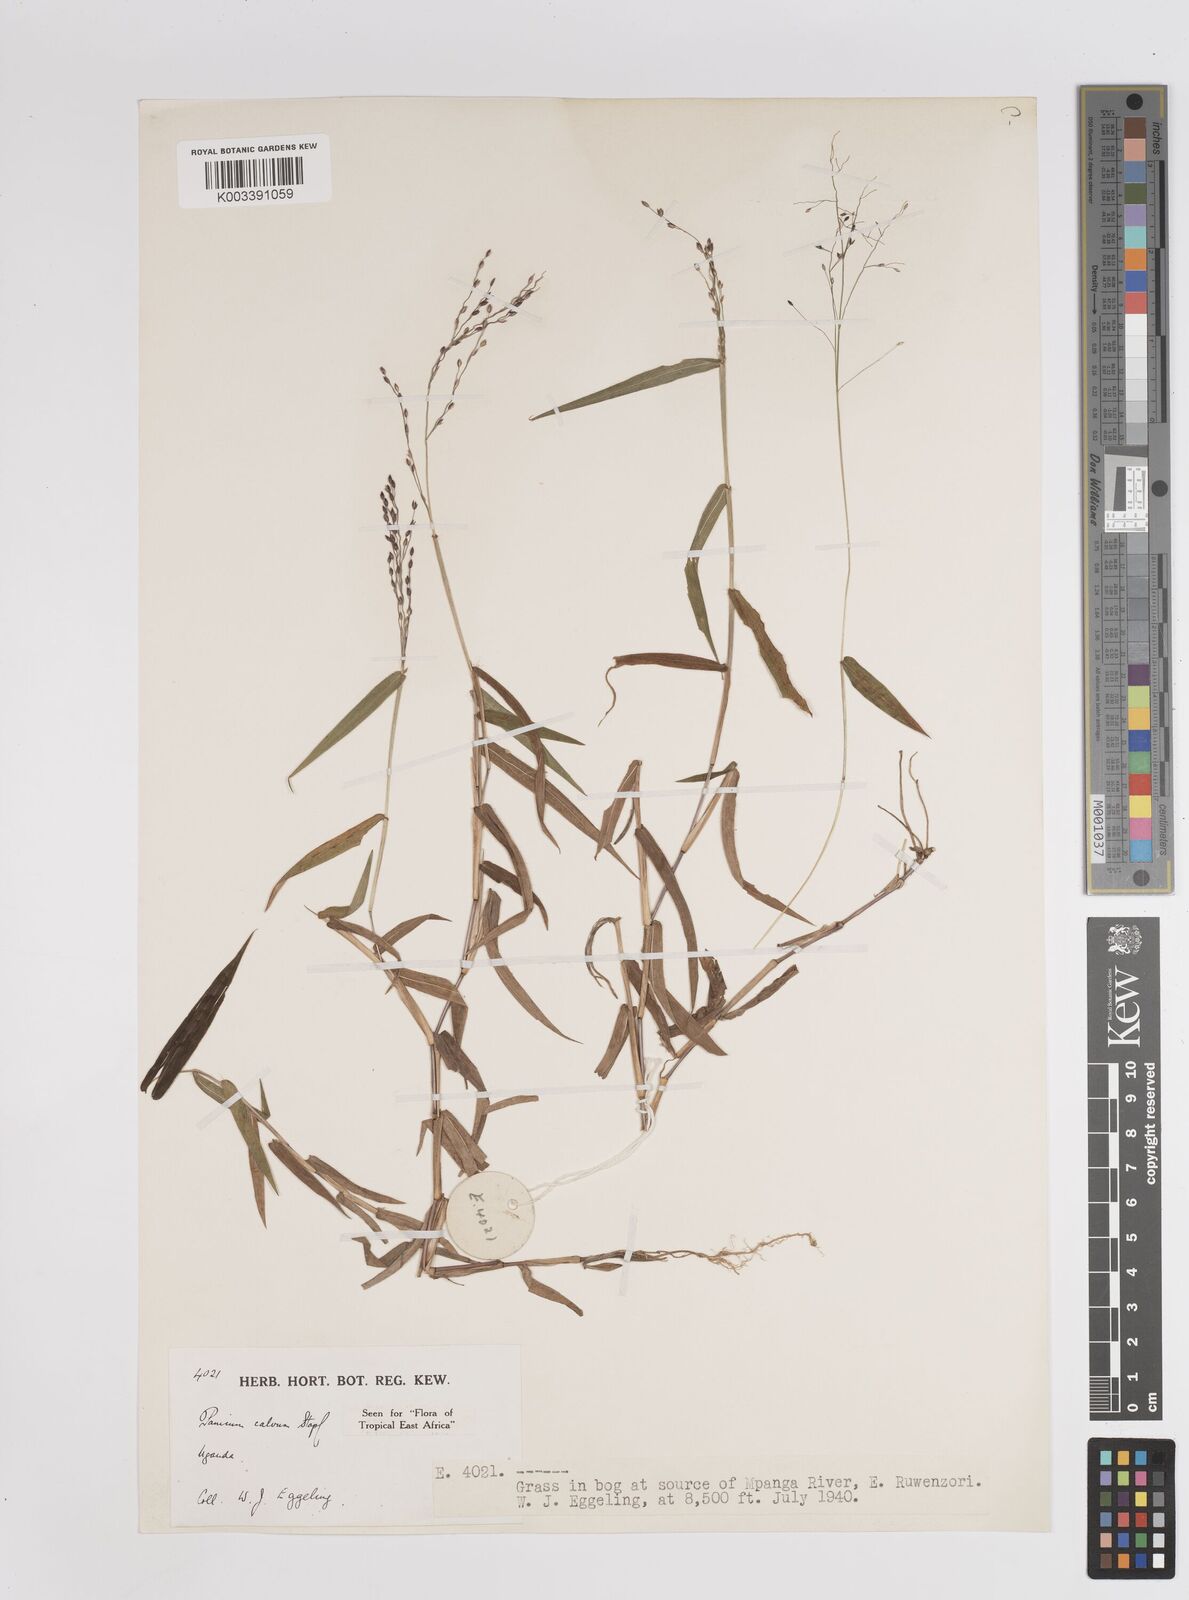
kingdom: Plantae
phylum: Tracheophyta
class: Liliopsida
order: Poales
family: Poaceae
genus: Panicum
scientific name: Panicum calvum
